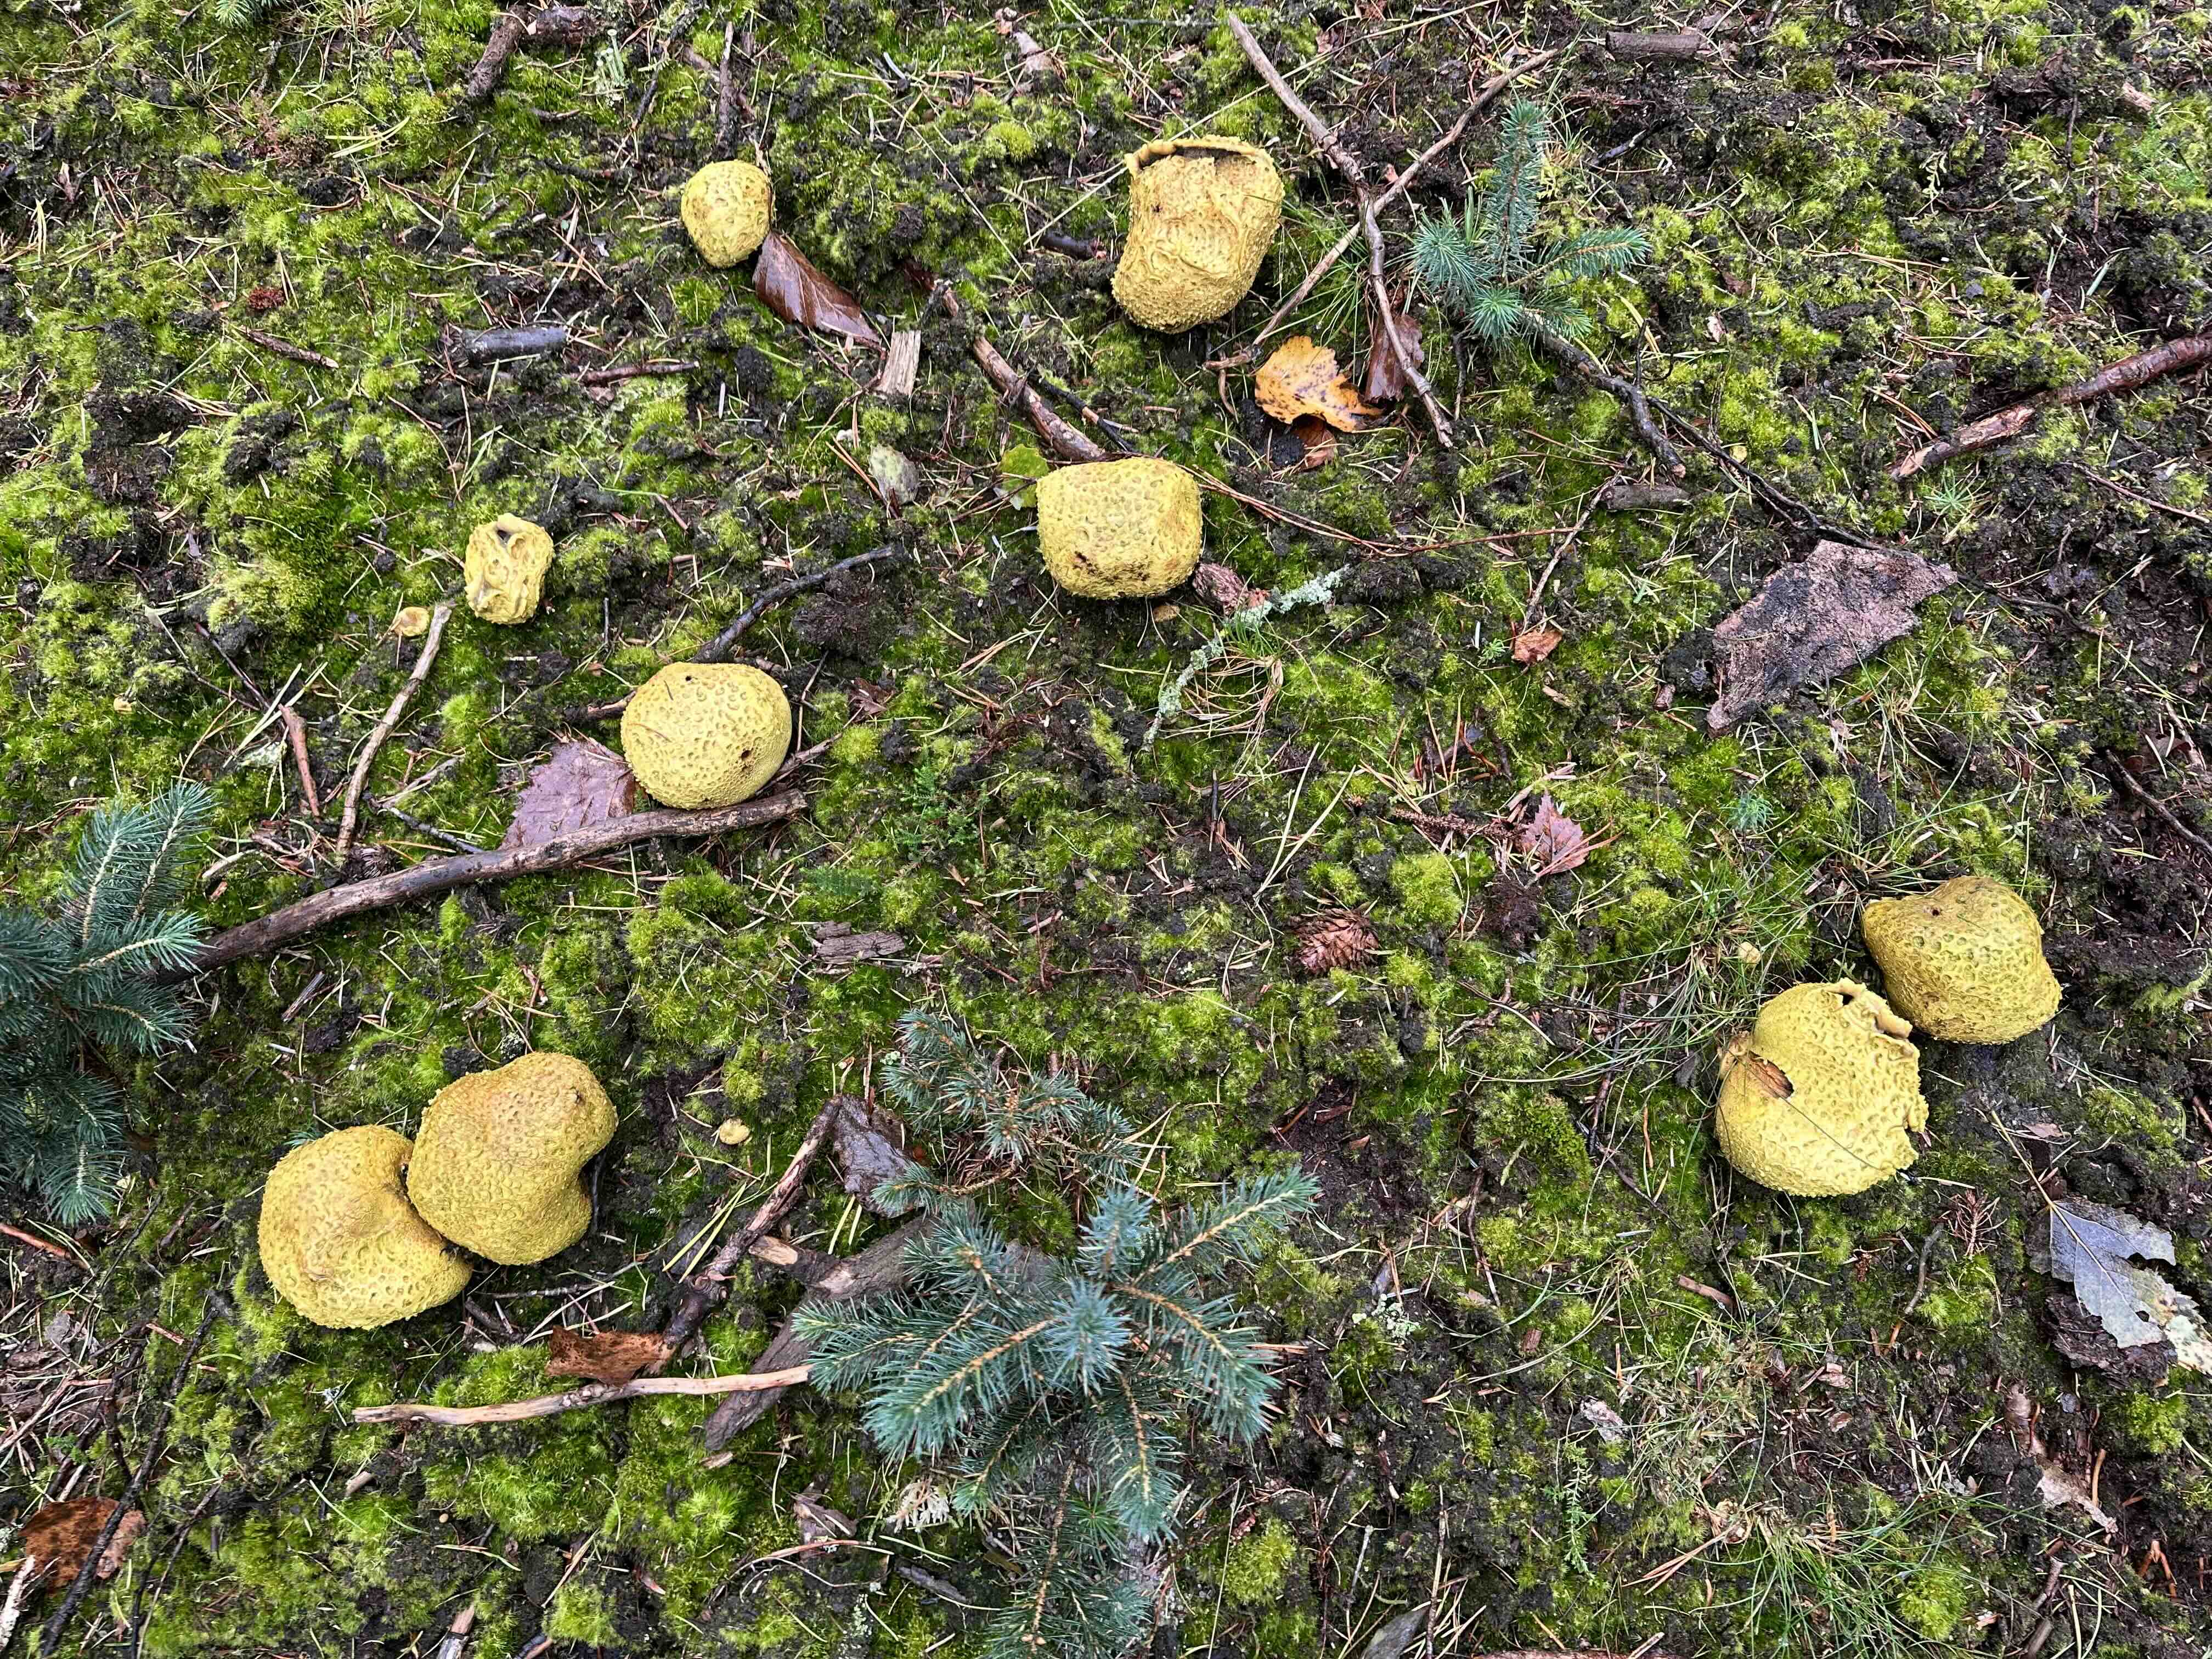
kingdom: Fungi
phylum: Basidiomycota
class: Agaricomycetes
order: Boletales
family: Sclerodermataceae
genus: Scleroderma
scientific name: Scleroderma citrinum
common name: almindelig bruskbold
